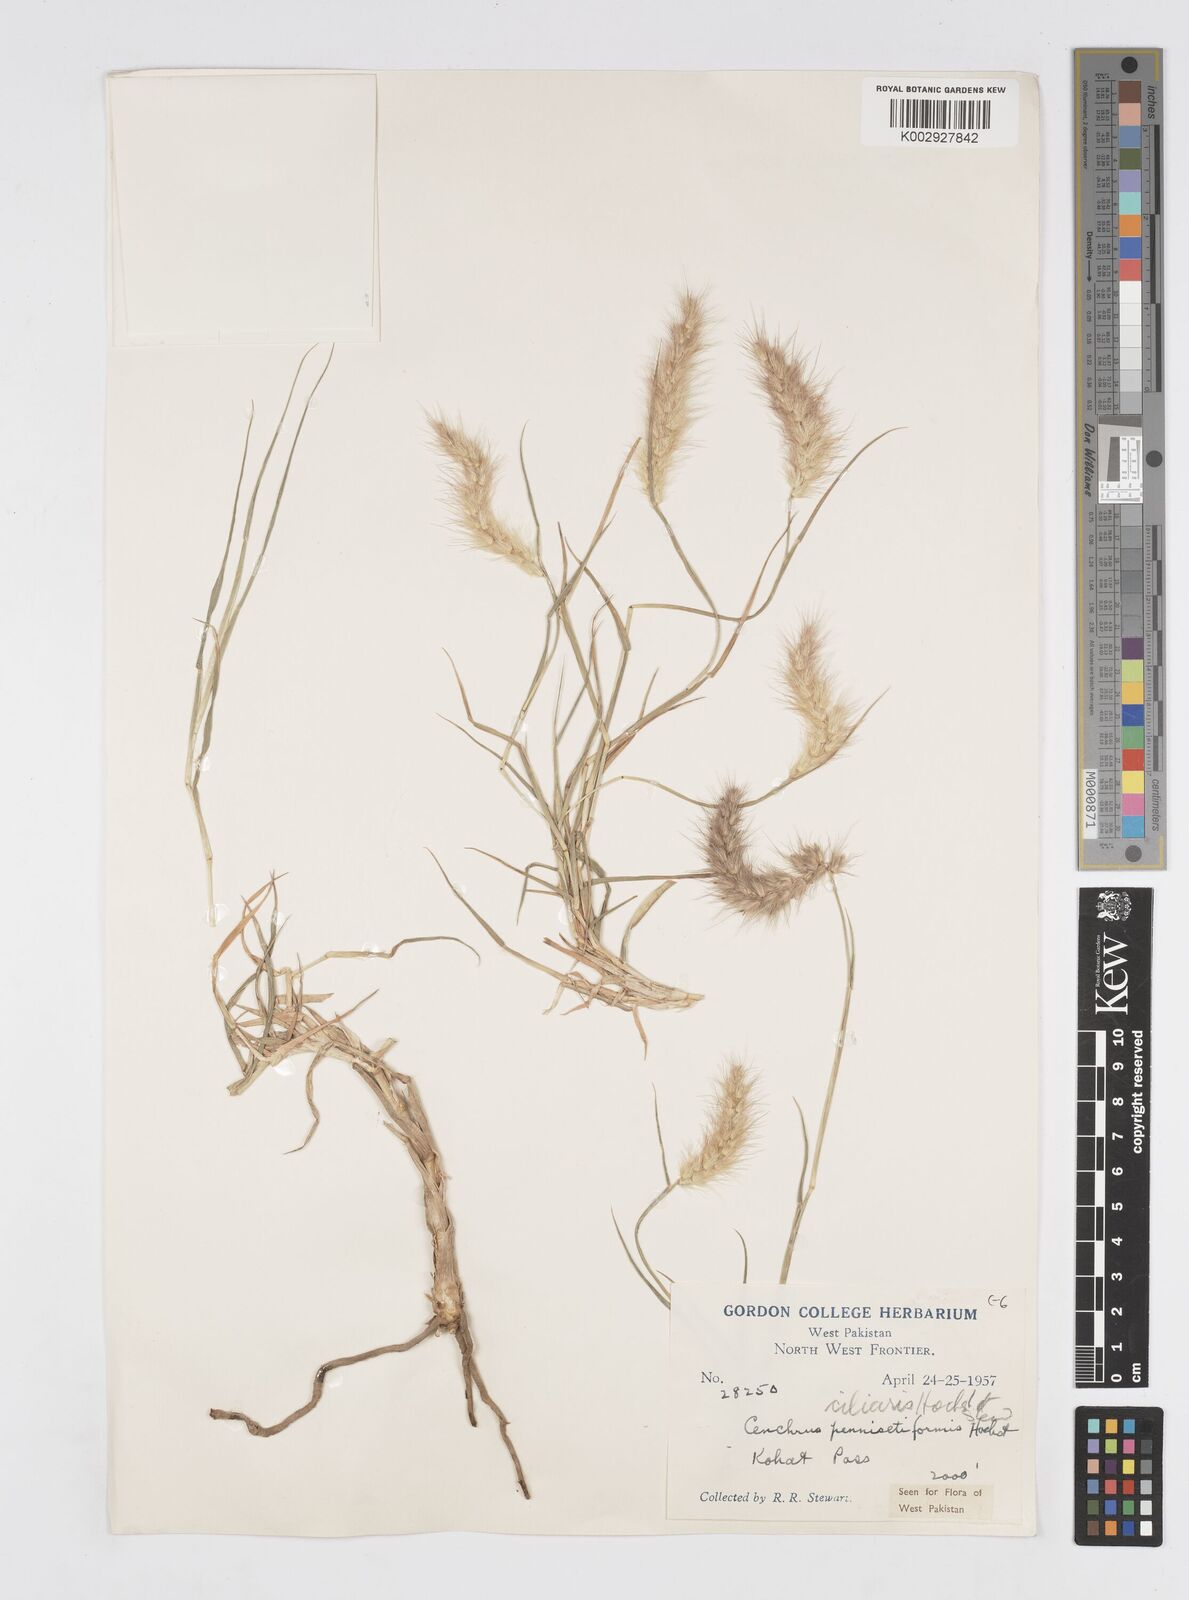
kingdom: Plantae
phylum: Tracheophyta
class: Liliopsida
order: Poales
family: Poaceae
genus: Cenchrus
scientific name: Cenchrus ciliaris
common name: Buffelgrass
